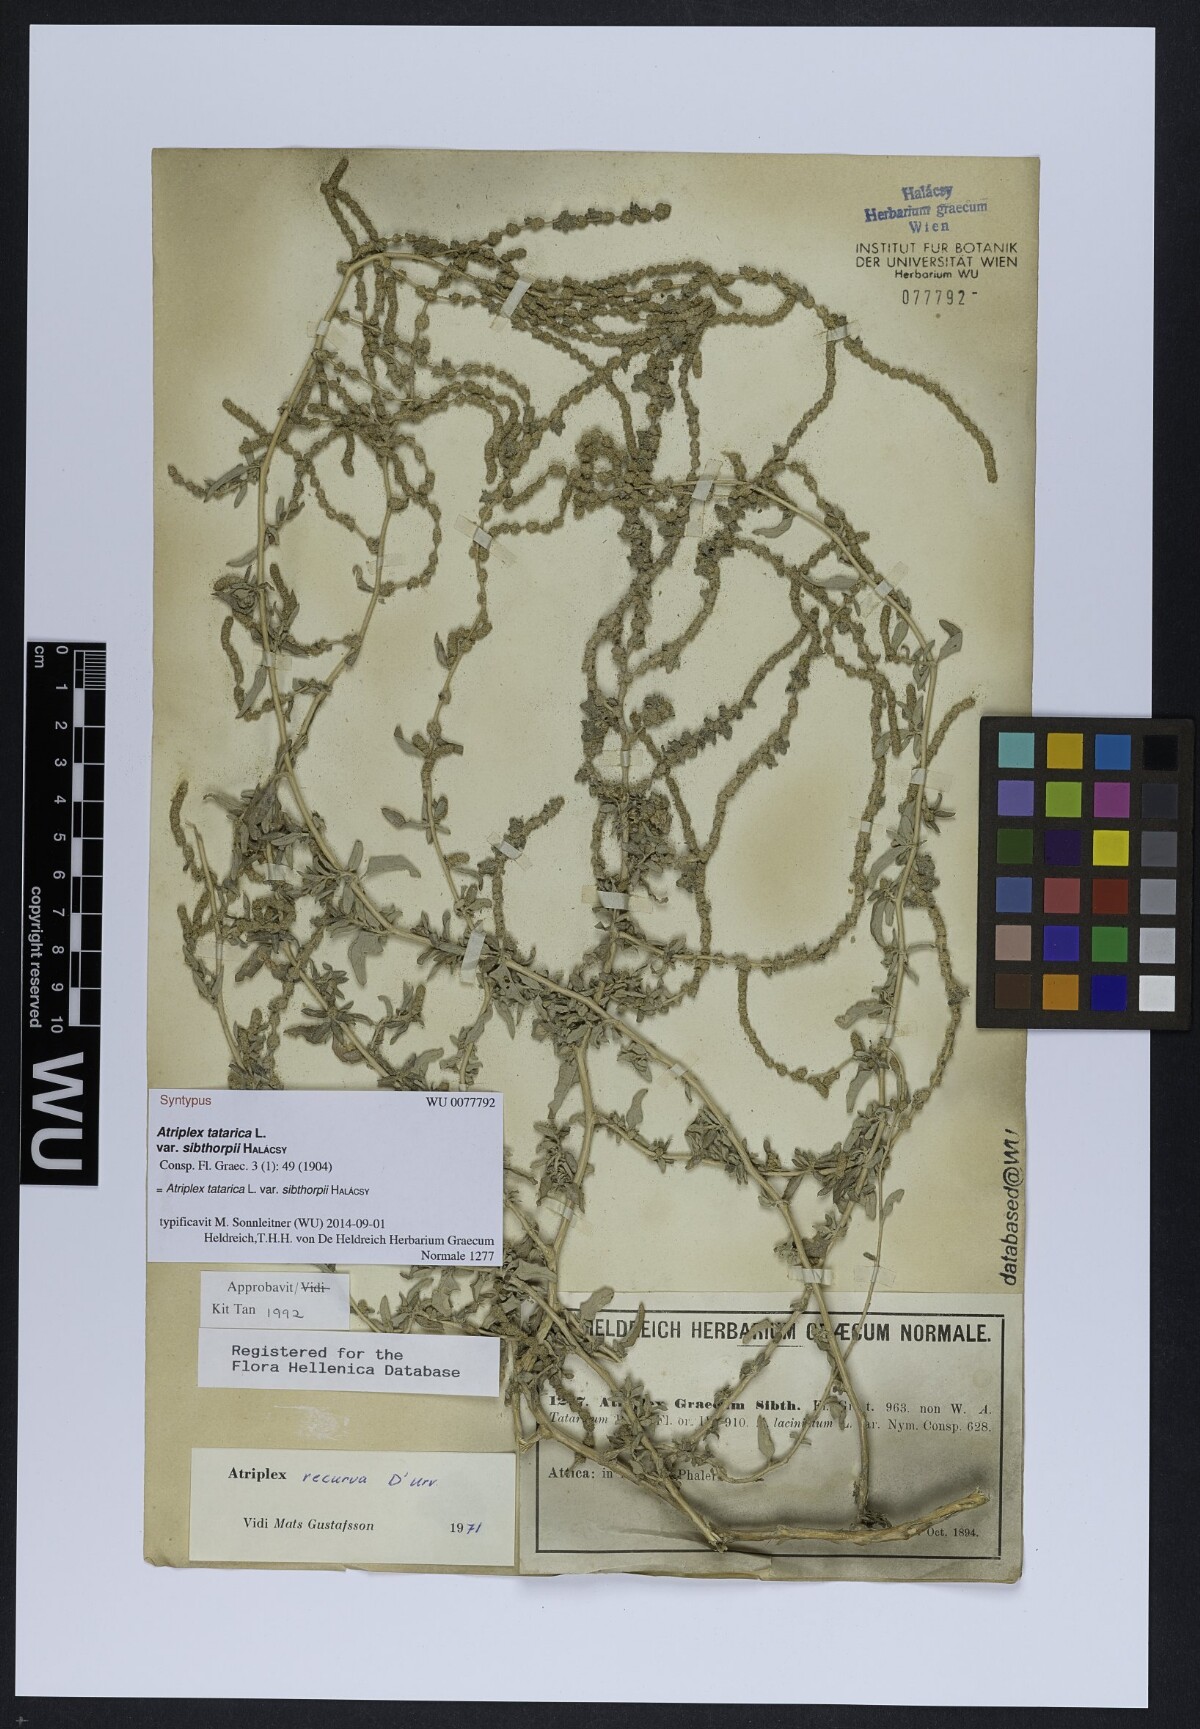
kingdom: Plantae
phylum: Tracheophyta
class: Magnoliopsida
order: Caryophyllales
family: Amaranthaceae
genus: Atriplex
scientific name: Atriplex recurva
